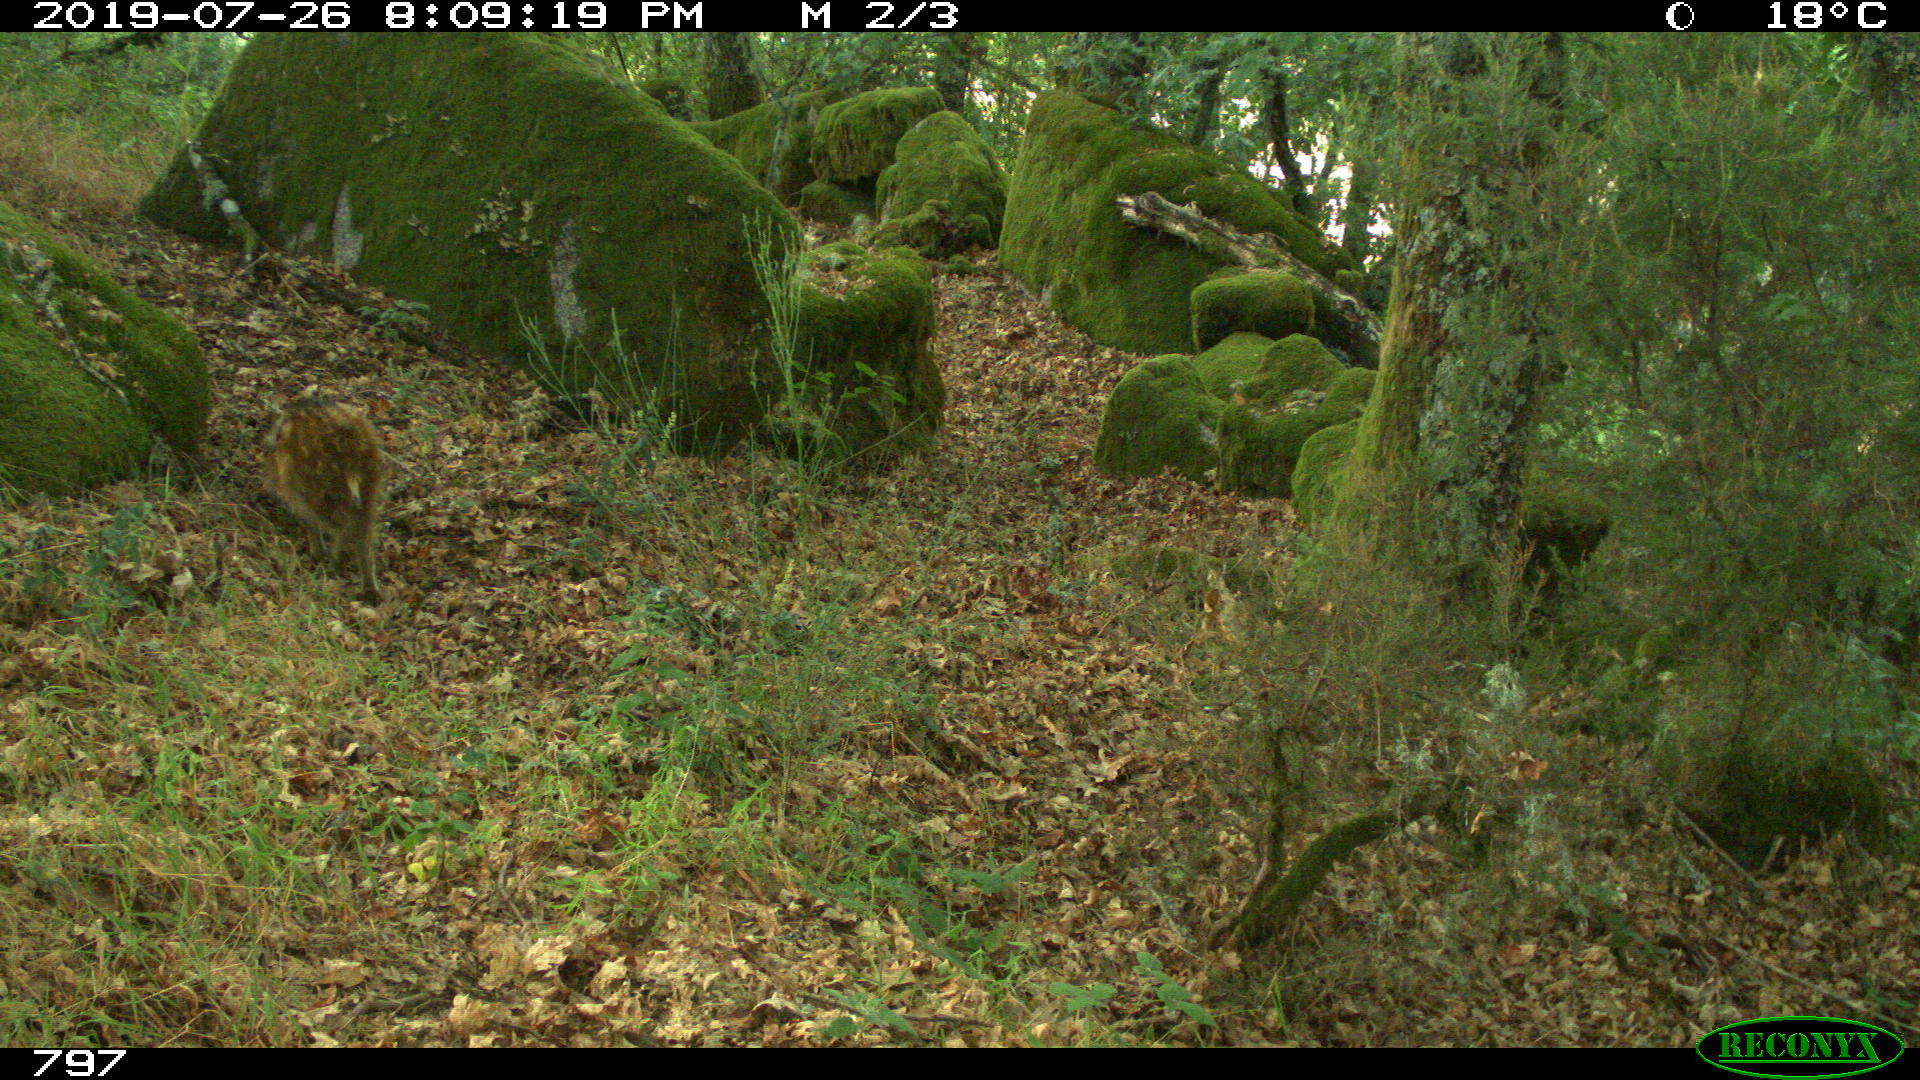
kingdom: Animalia
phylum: Chordata
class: Mammalia
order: Artiodactyla
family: Suidae
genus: Sus
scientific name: Sus scrofa
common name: Wild boar
